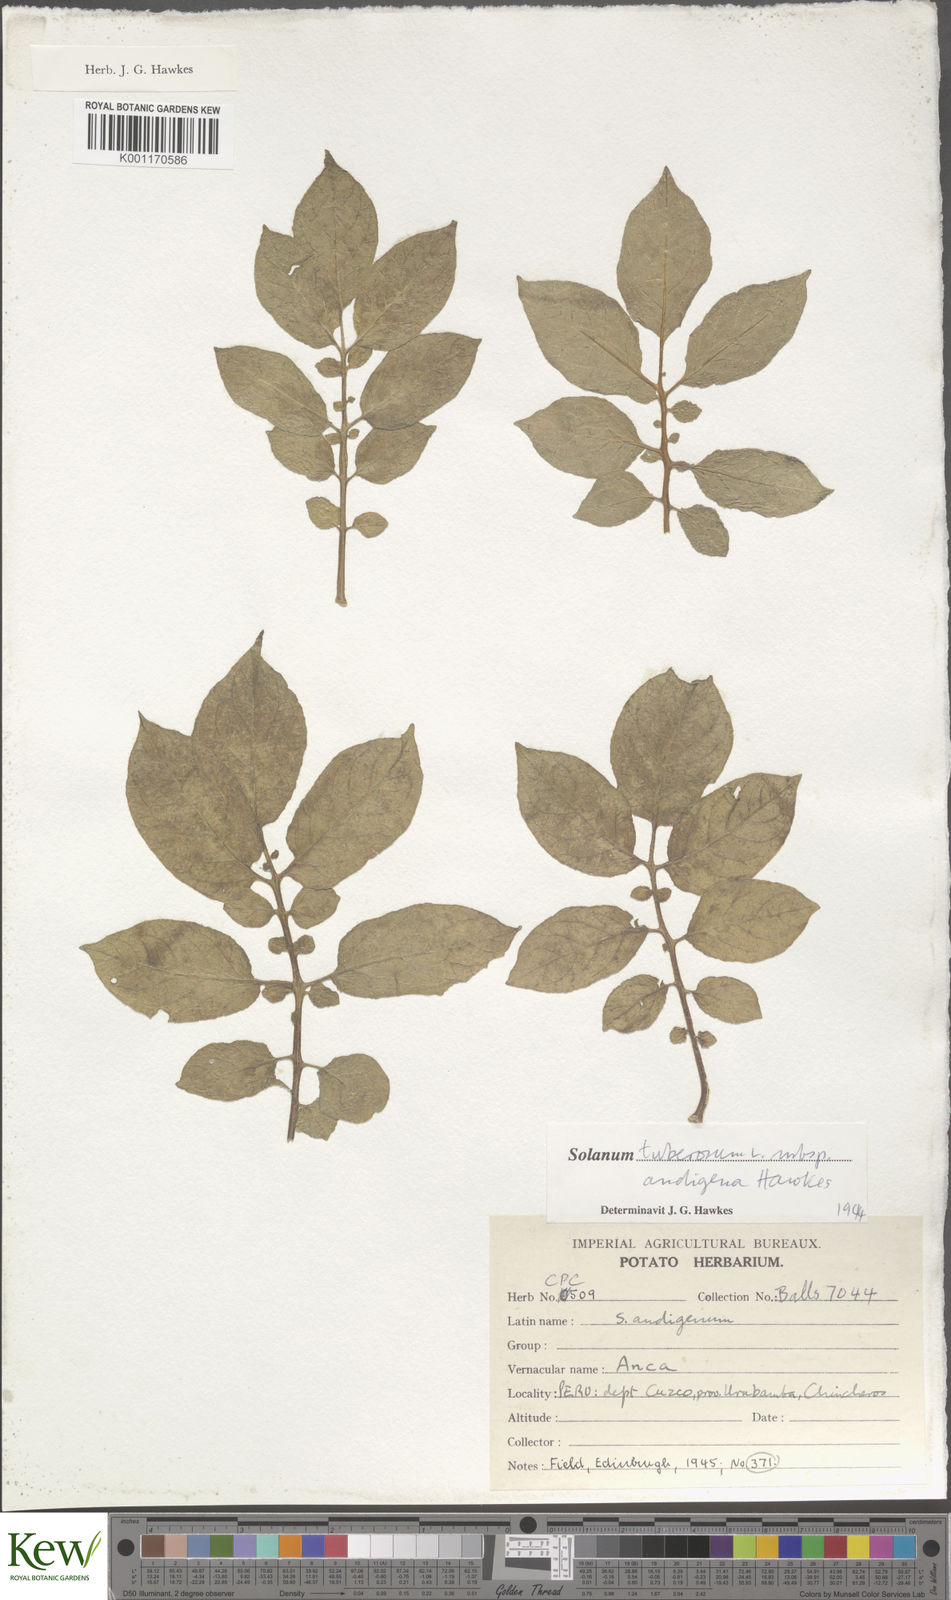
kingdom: Plantae
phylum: Tracheophyta
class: Magnoliopsida
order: Solanales
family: Solanaceae
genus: Solanum
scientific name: Solanum tuberosum
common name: Potato
